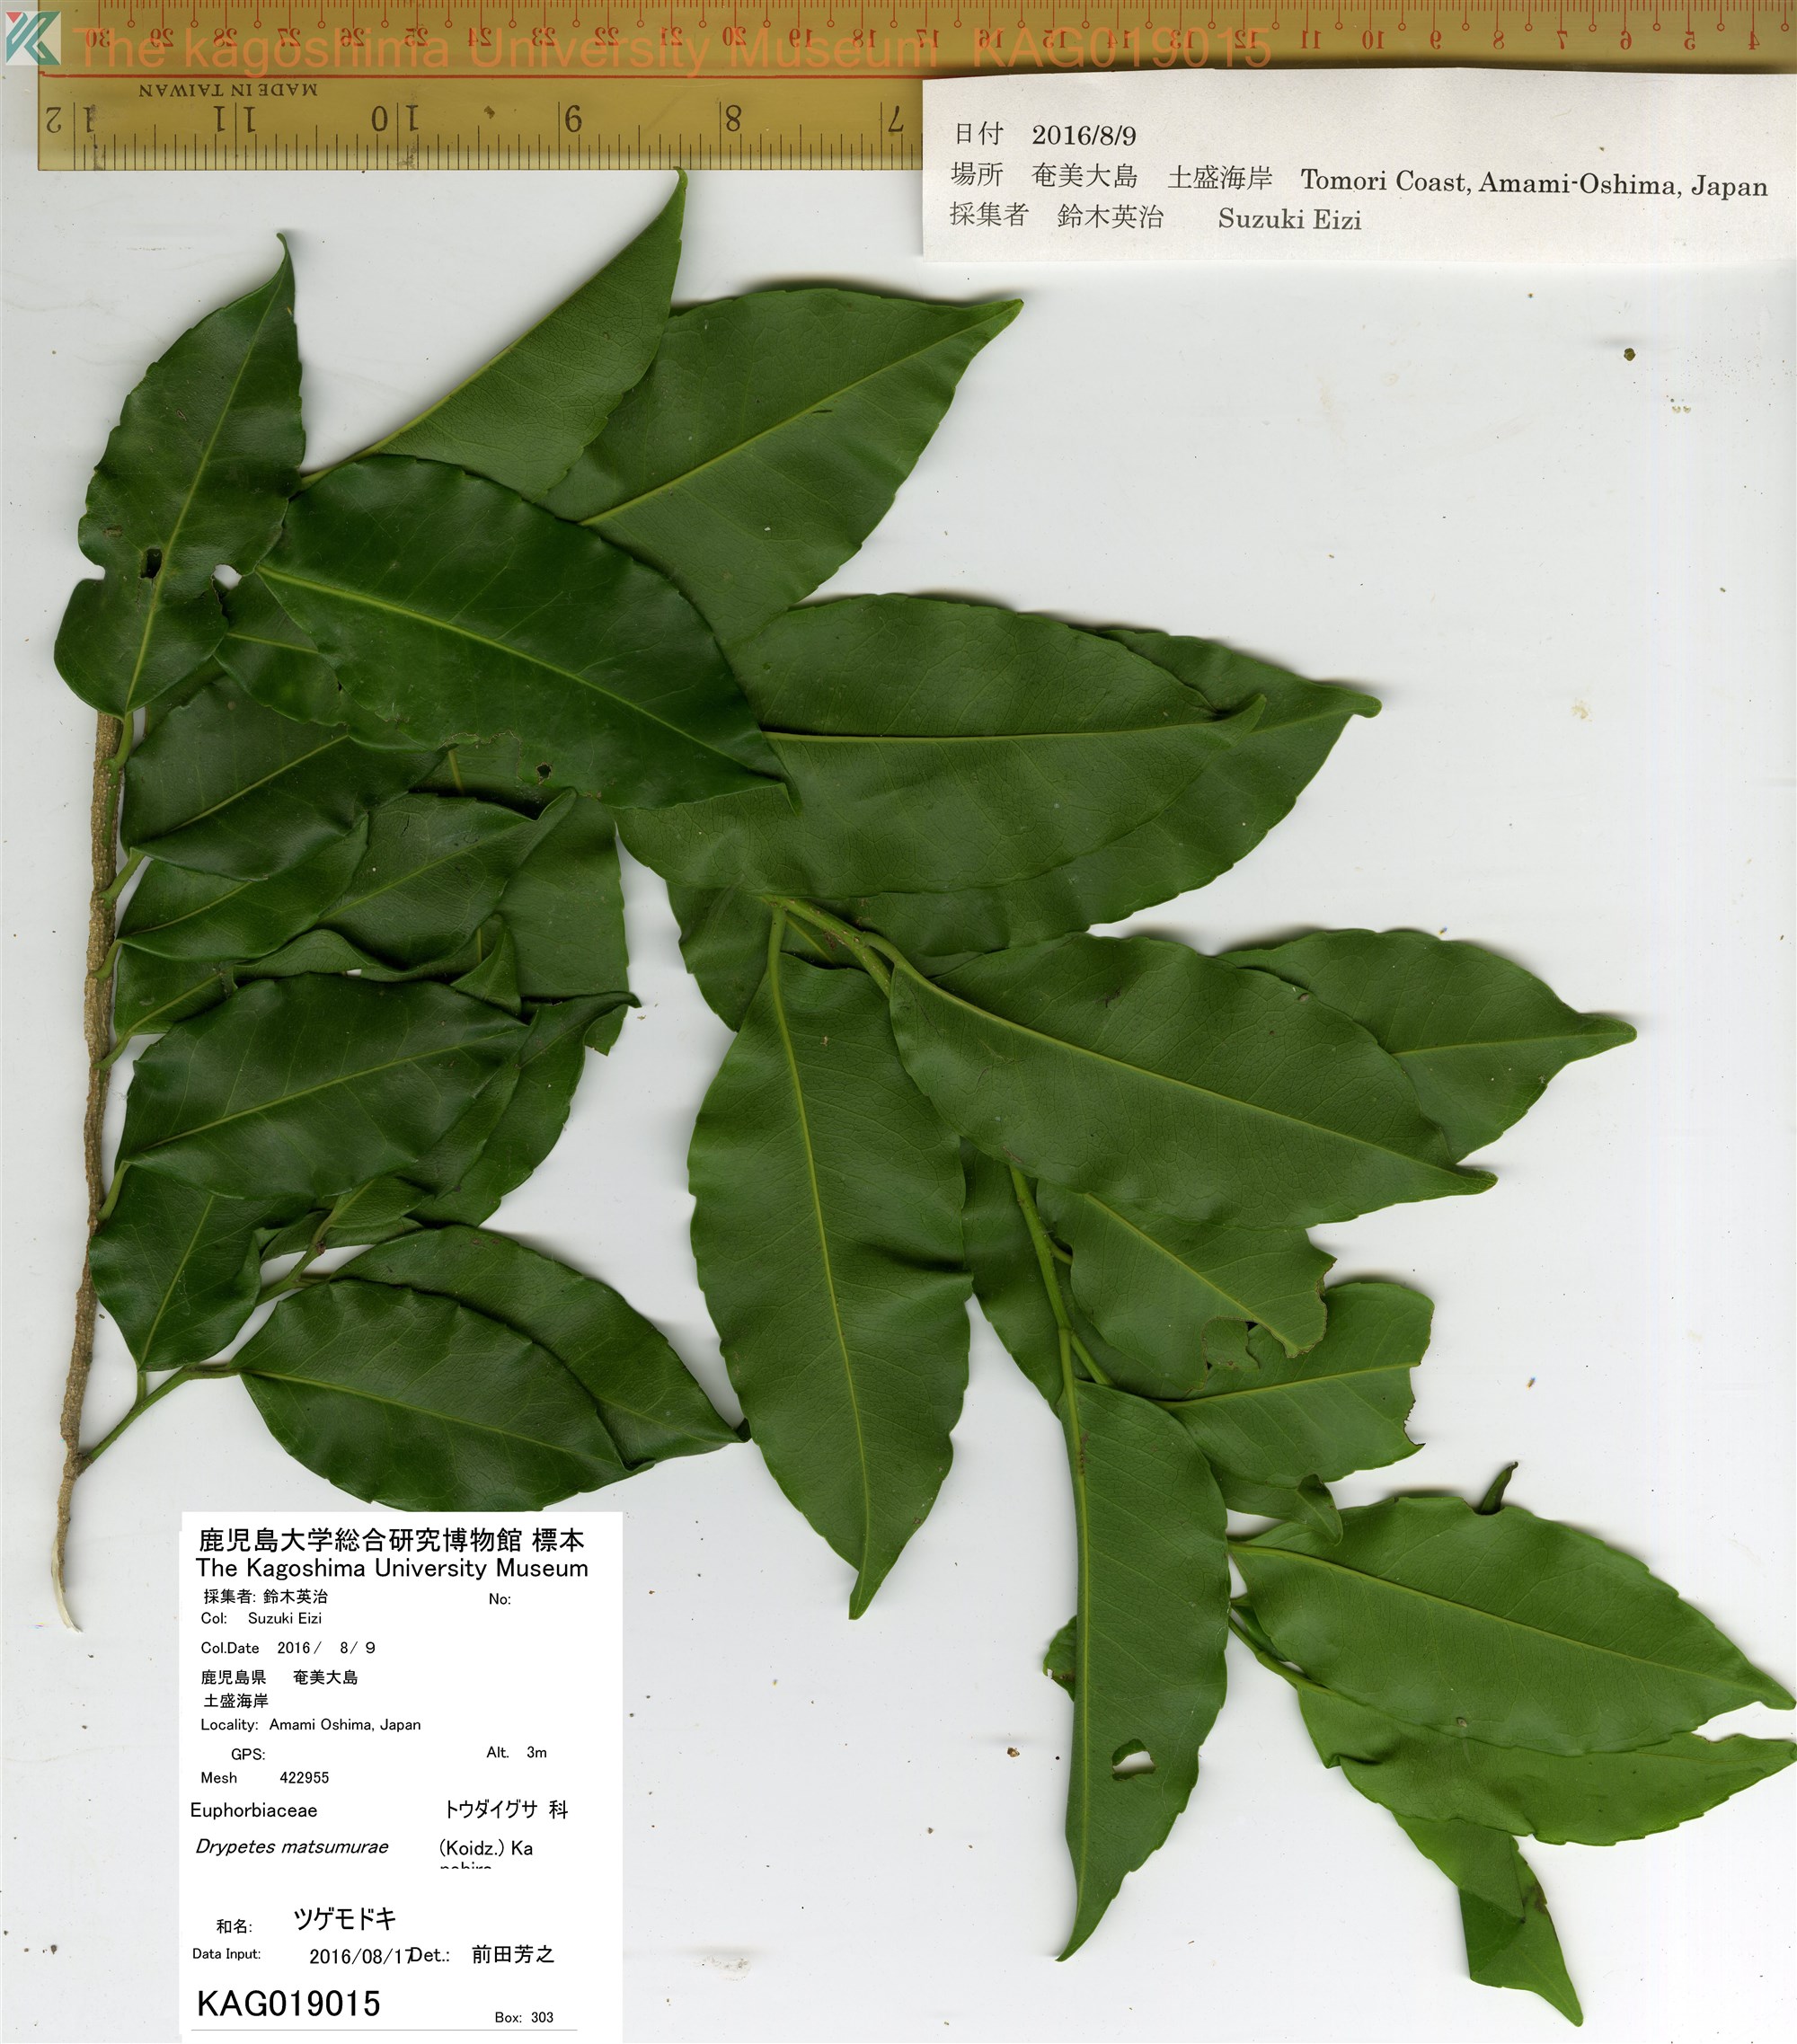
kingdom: Plantae
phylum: Tracheophyta
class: Magnoliopsida
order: Malpighiales
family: Putranjivaceae
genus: Putranjiva
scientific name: Putranjiva matsumurae
